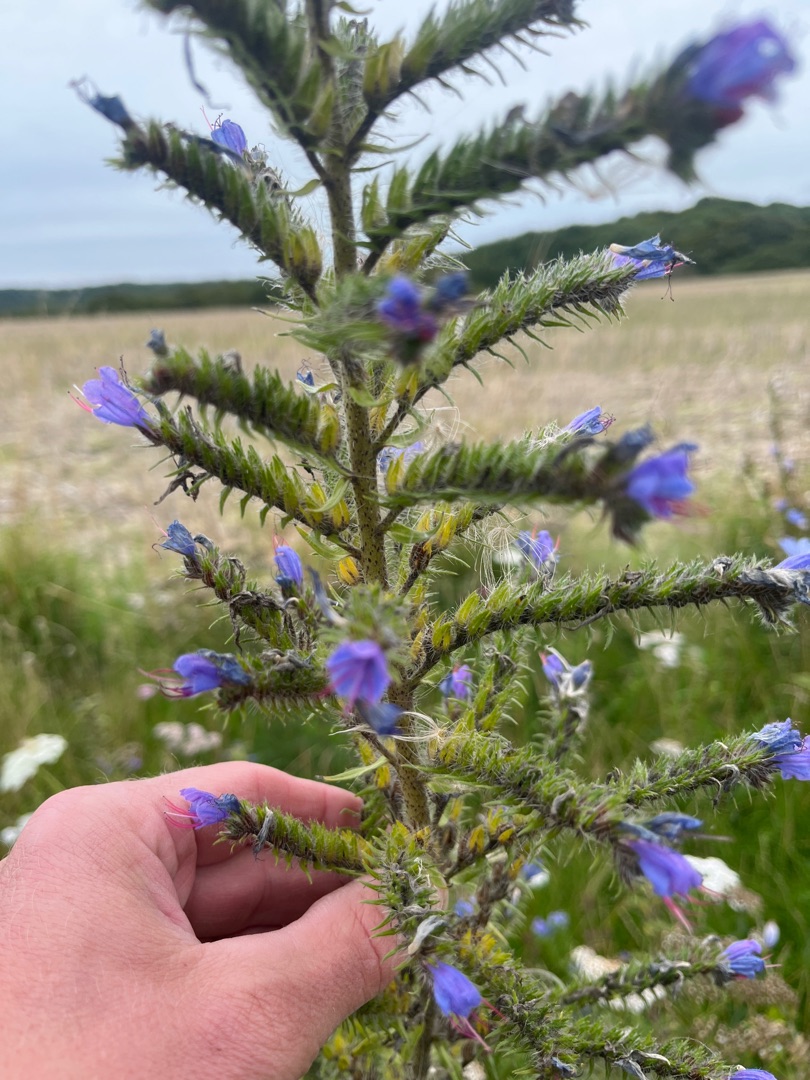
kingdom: Plantae
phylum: Tracheophyta
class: Magnoliopsida
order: Boraginales
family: Boraginaceae
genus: Echium
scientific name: Echium vulgare
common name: Slangehoved
